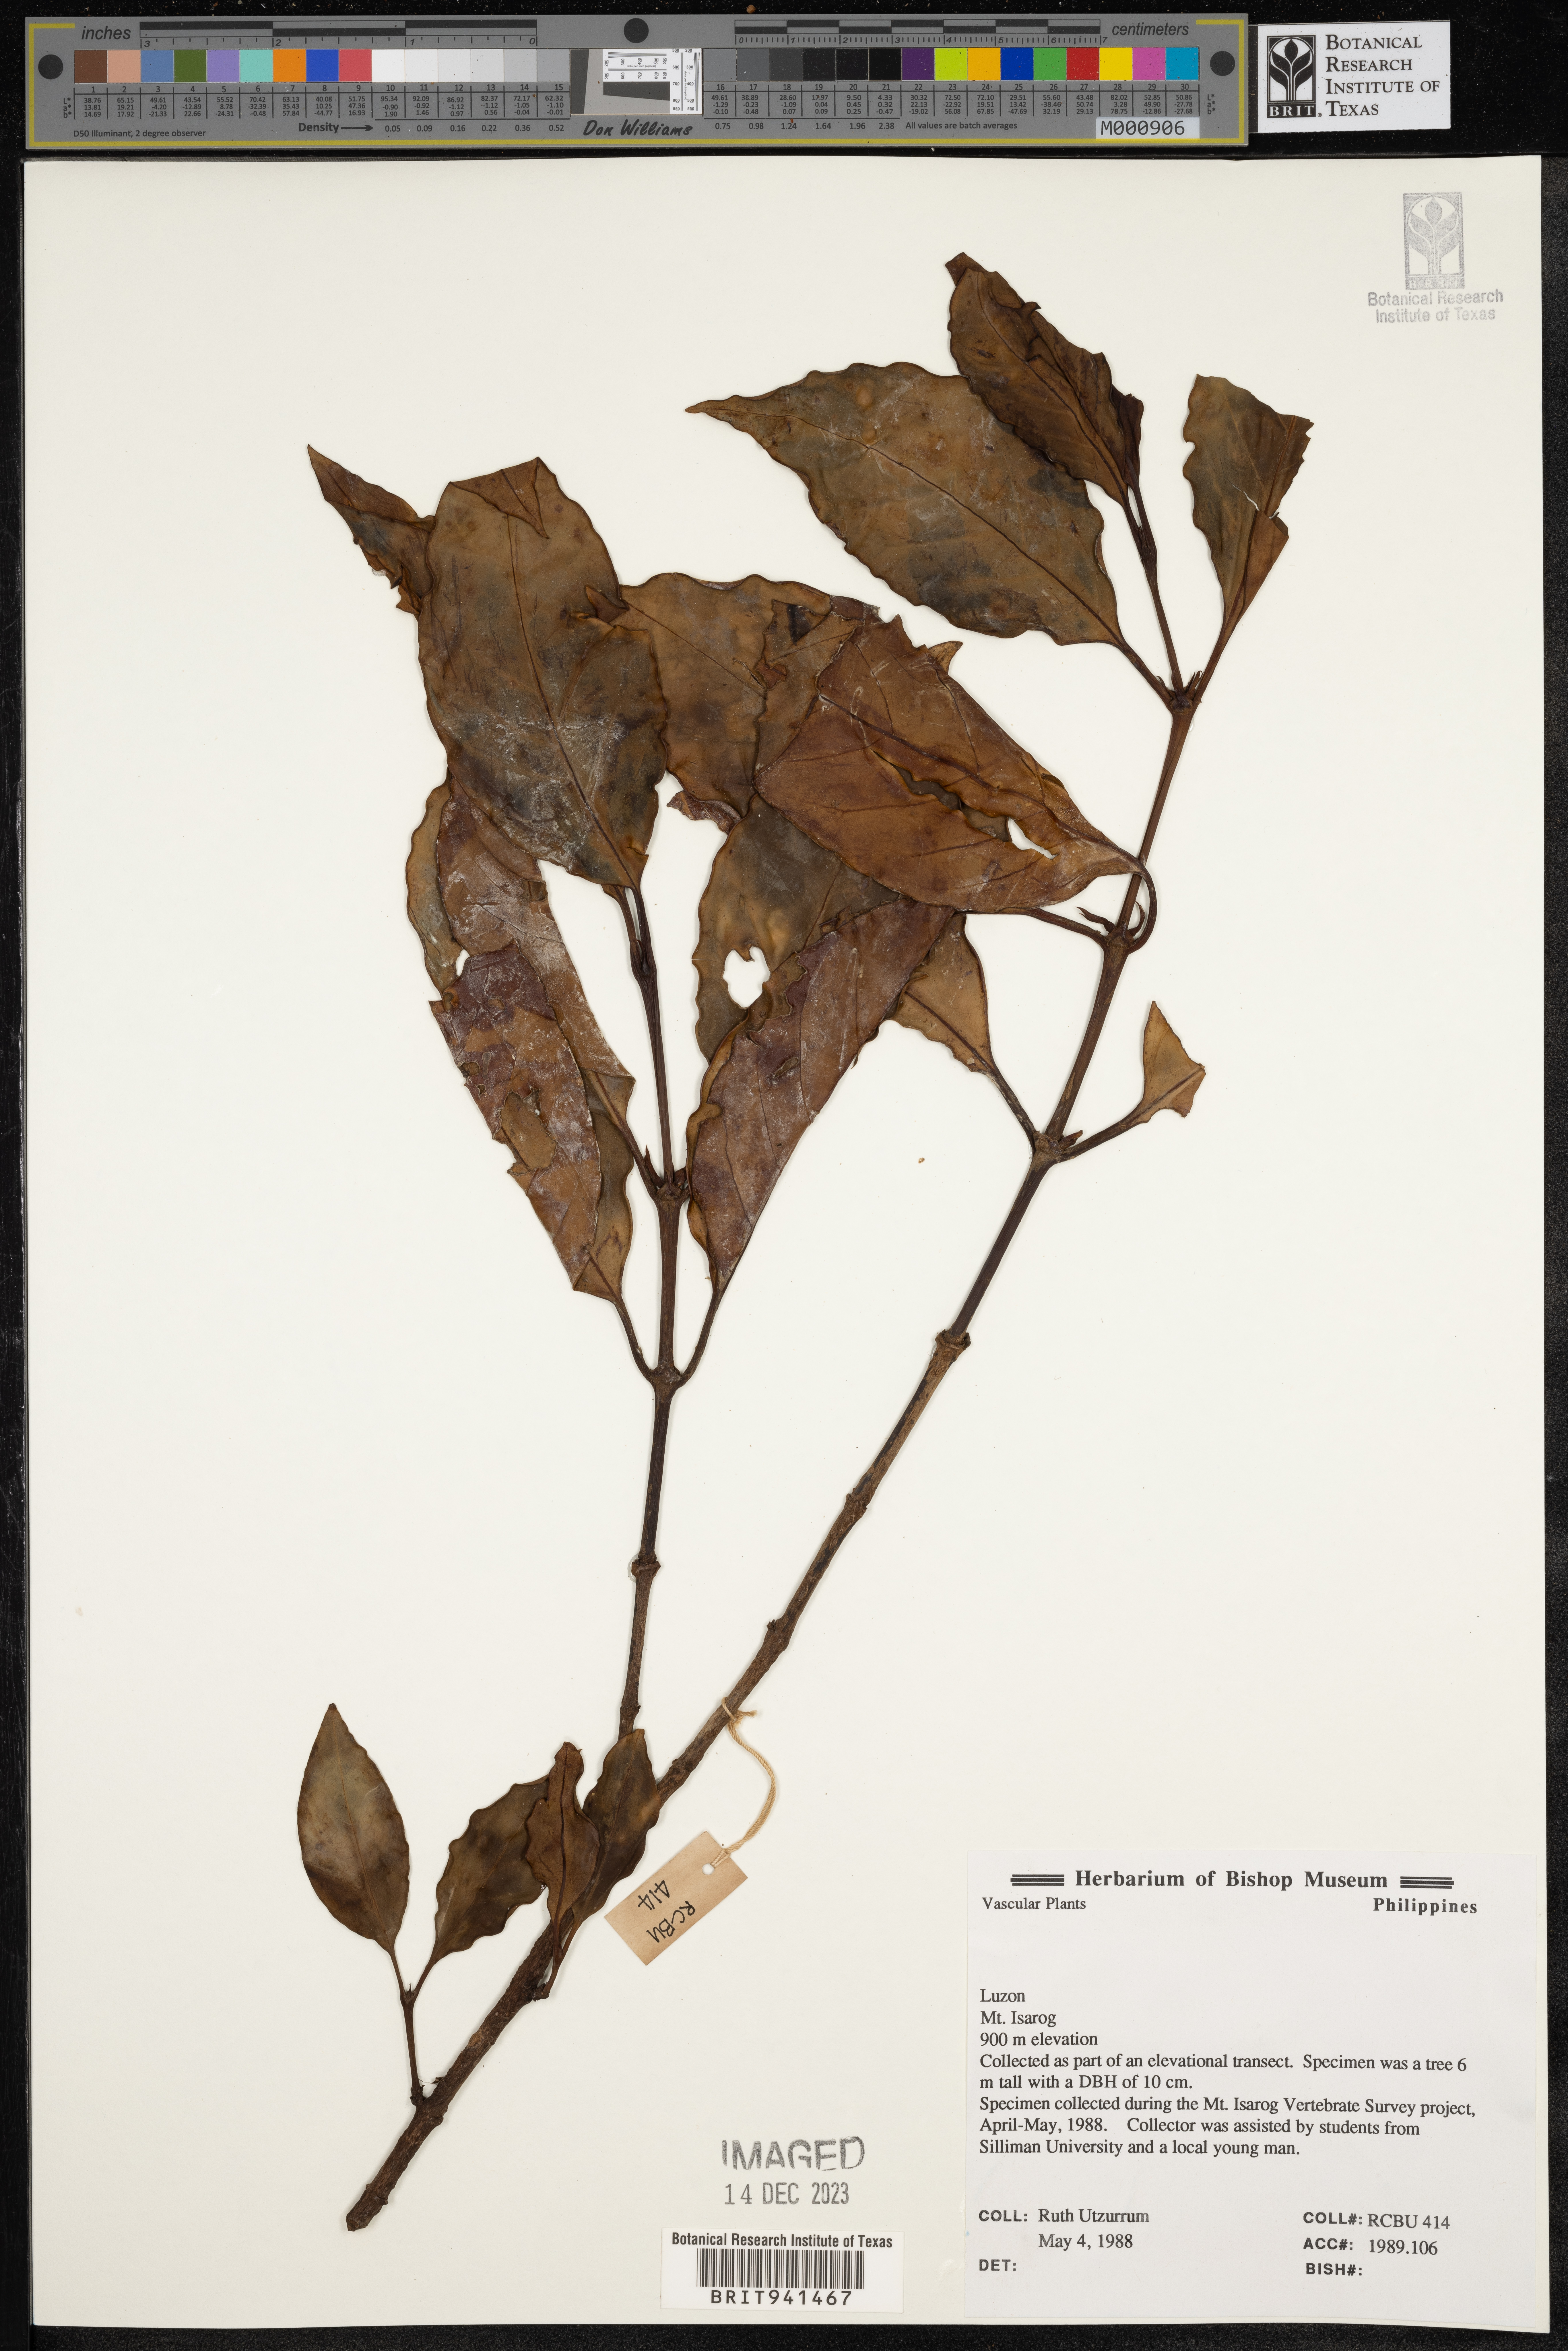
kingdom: Plantae
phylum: Tracheophyta
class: Magnoliopsida
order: Gentianales
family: Rubiaceae
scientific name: Rubiaceae
